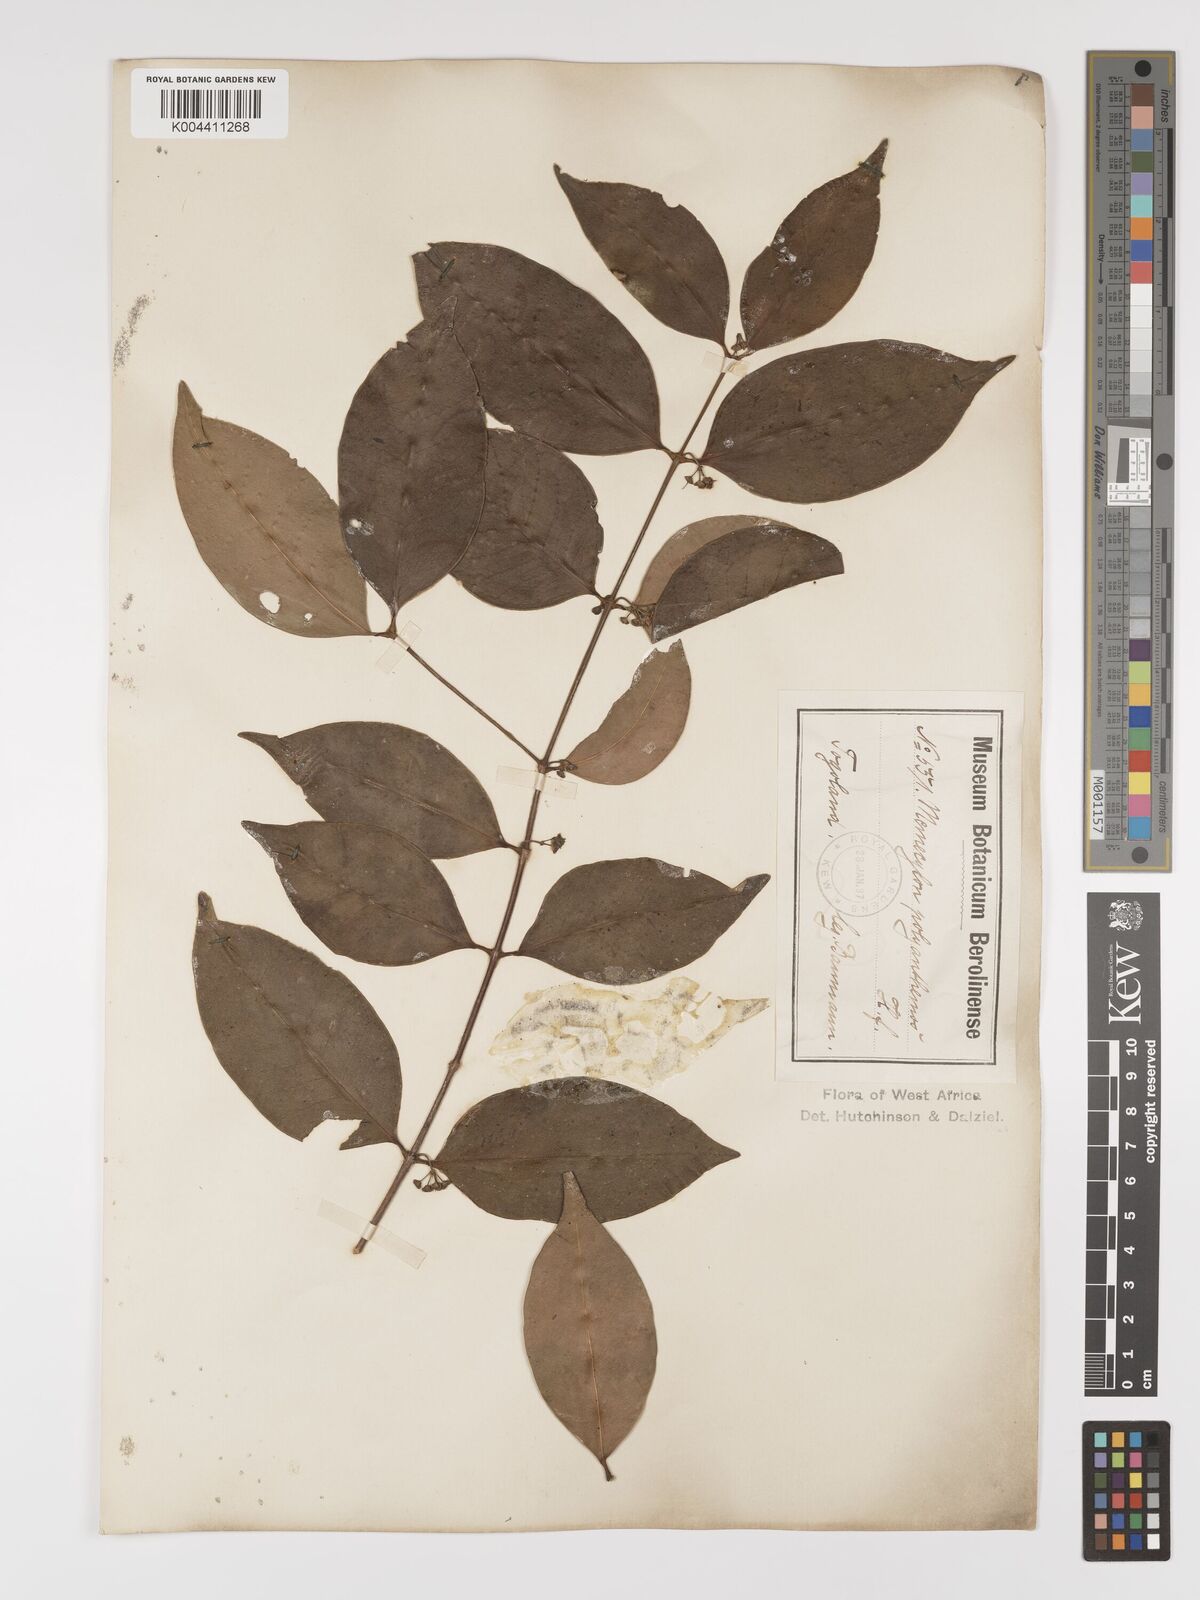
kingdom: Plantae
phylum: Tracheophyta
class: Magnoliopsida
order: Myrtales
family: Melastomataceae
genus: Memecylon
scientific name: Memecylon afzelii
